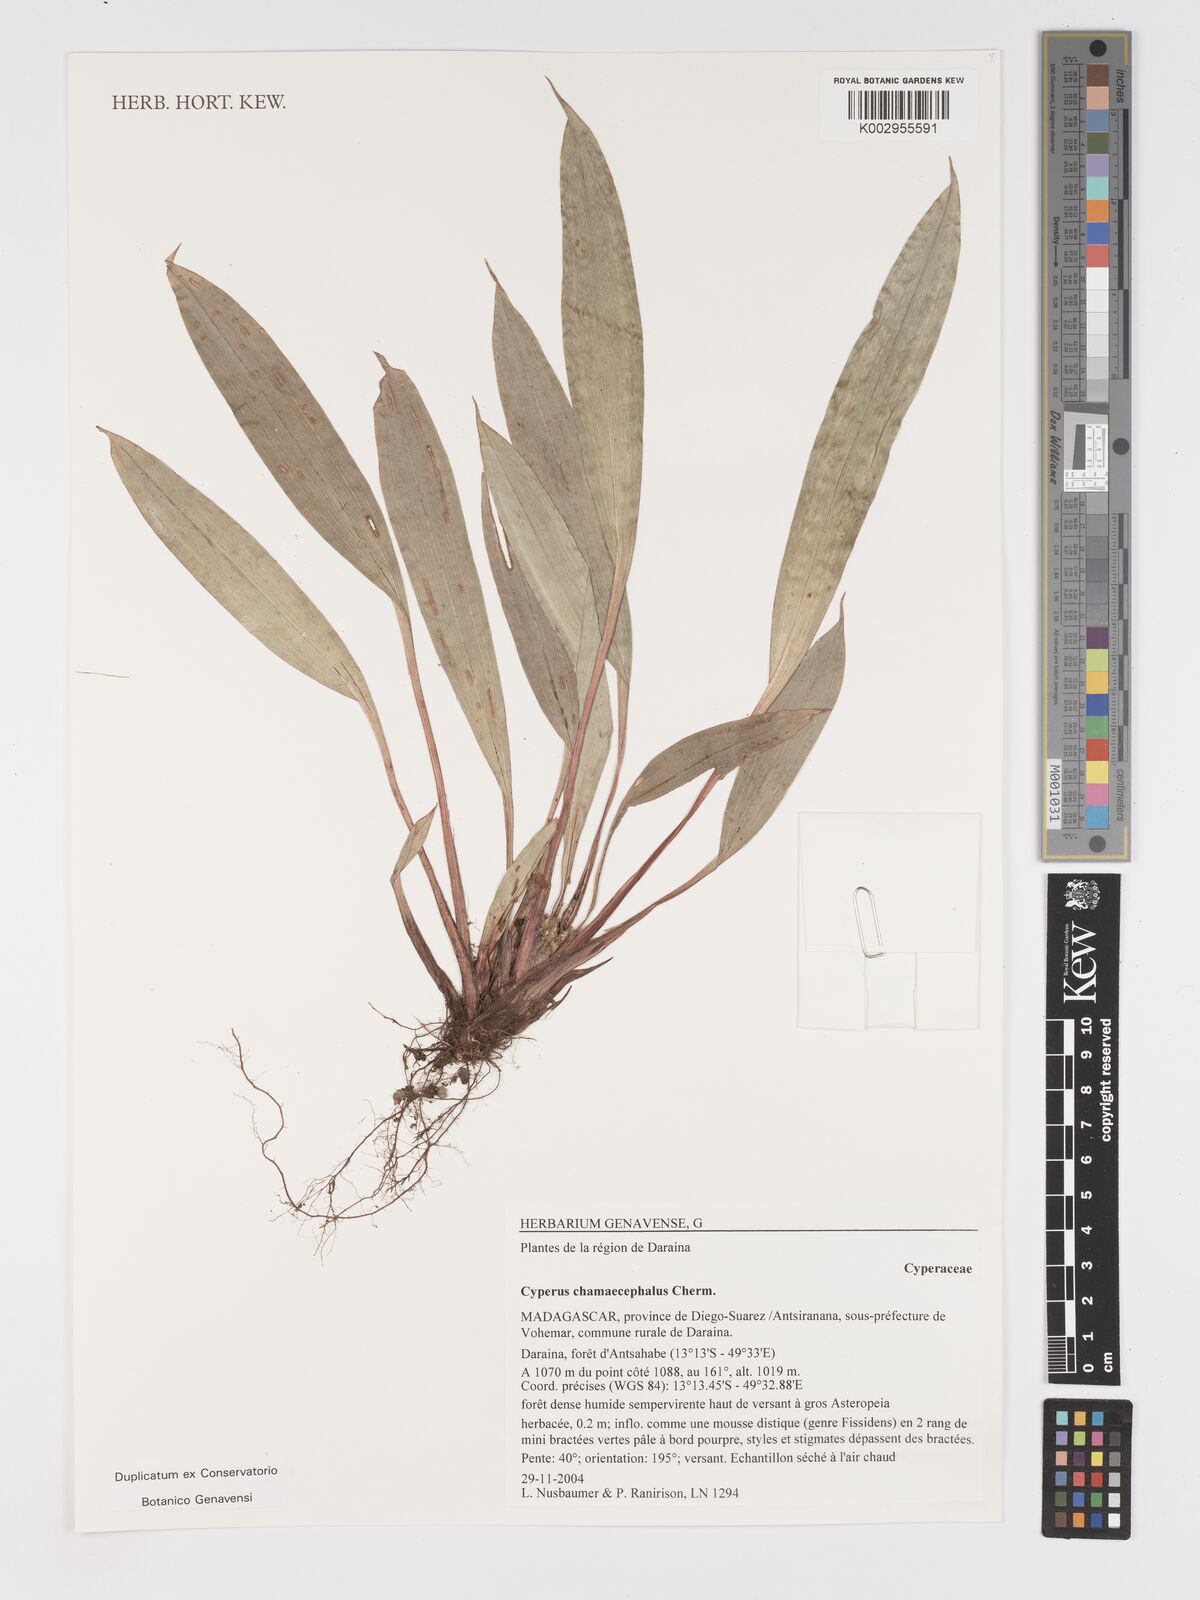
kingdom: Plantae
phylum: Tracheophyta
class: Liliopsida
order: Poales
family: Cyperaceae
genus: Cyperus
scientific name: Cyperus chamaecephalus
